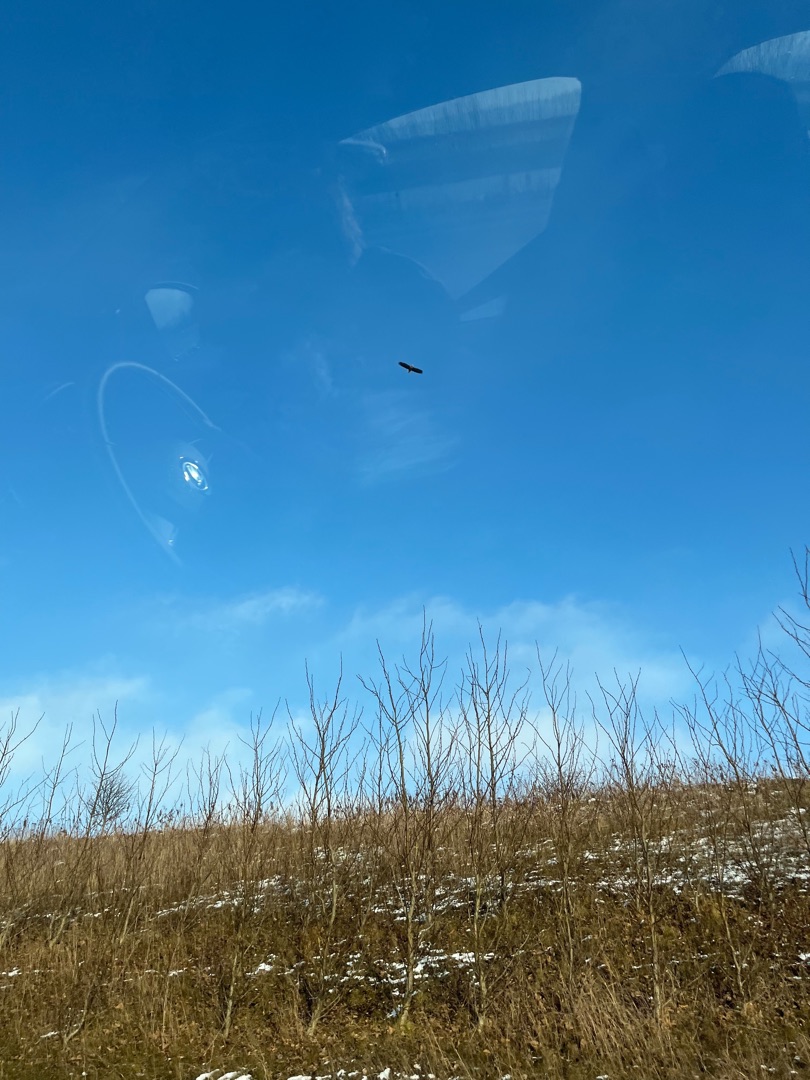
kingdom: Animalia
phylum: Chordata
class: Aves
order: Accipitriformes
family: Accipitridae
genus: Haliaeetus
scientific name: Haliaeetus albicilla
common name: Havørn
